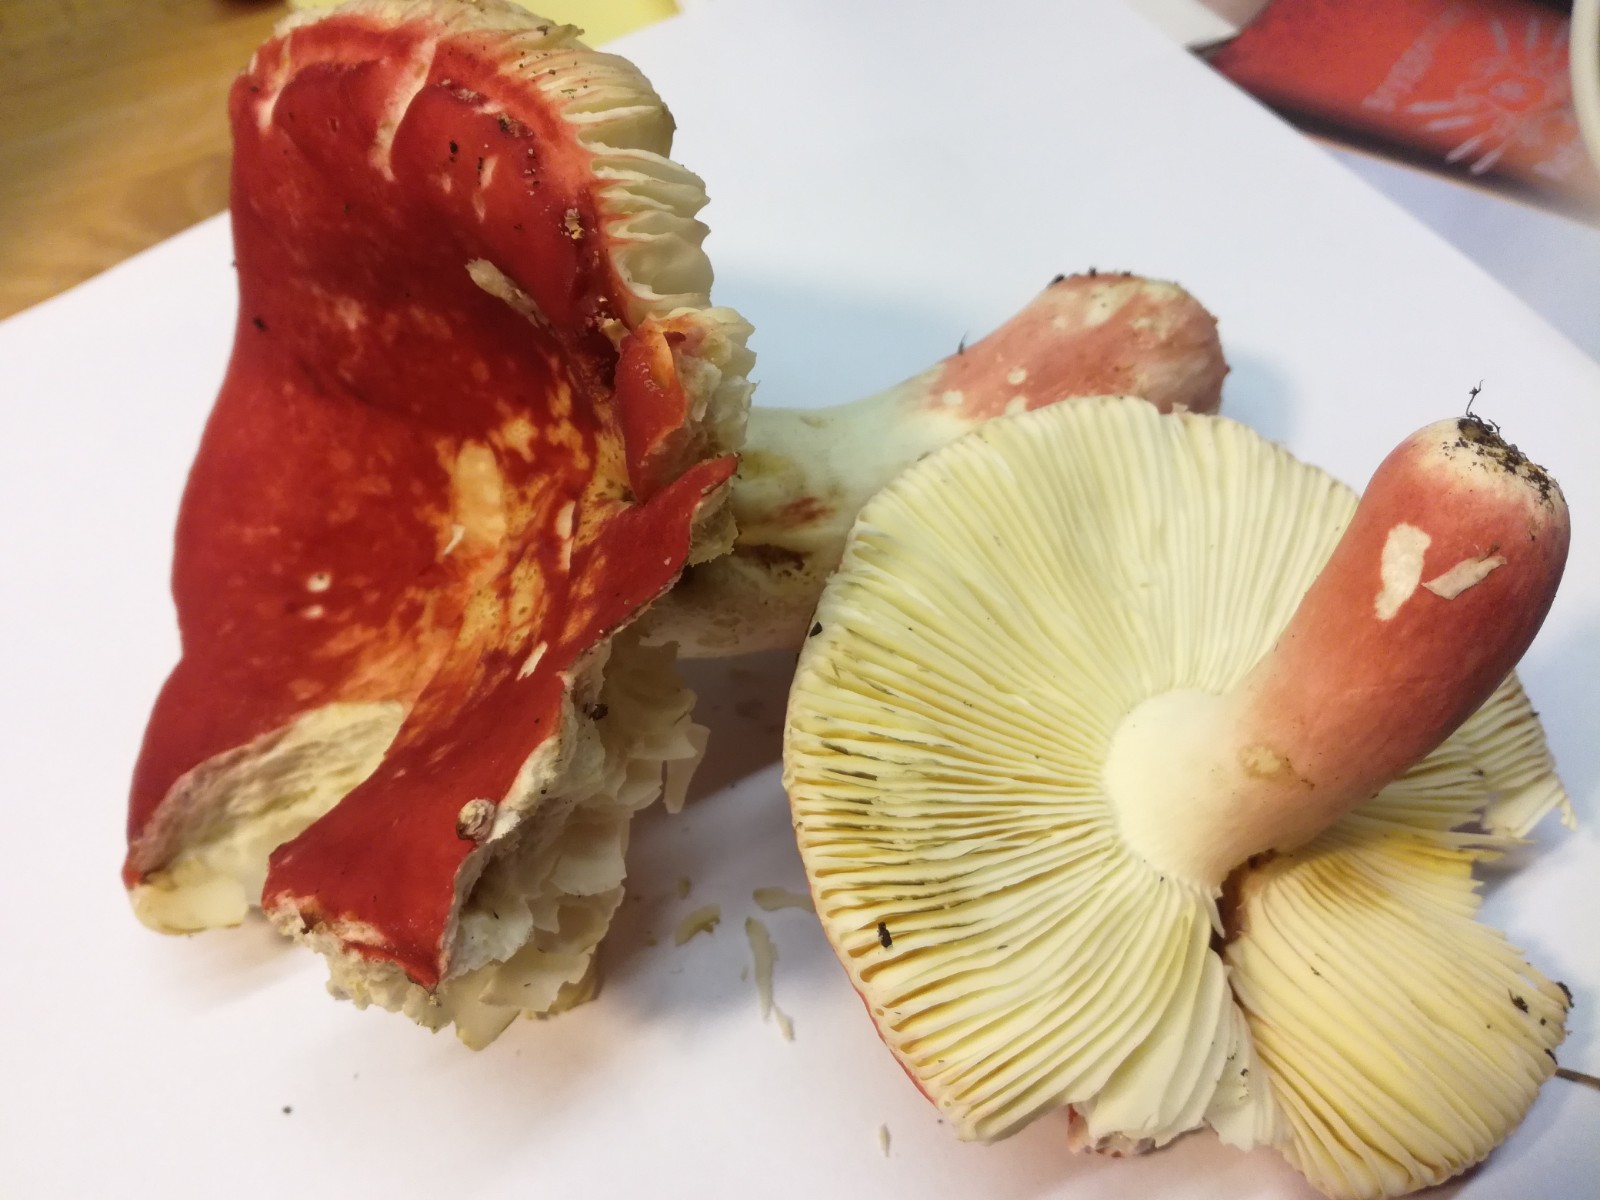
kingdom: Fungi
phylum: Basidiomycota
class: Agaricomycetes
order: Russulales
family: Russulaceae
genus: Russula
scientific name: Russula rosea
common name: fastkødet skørhat
